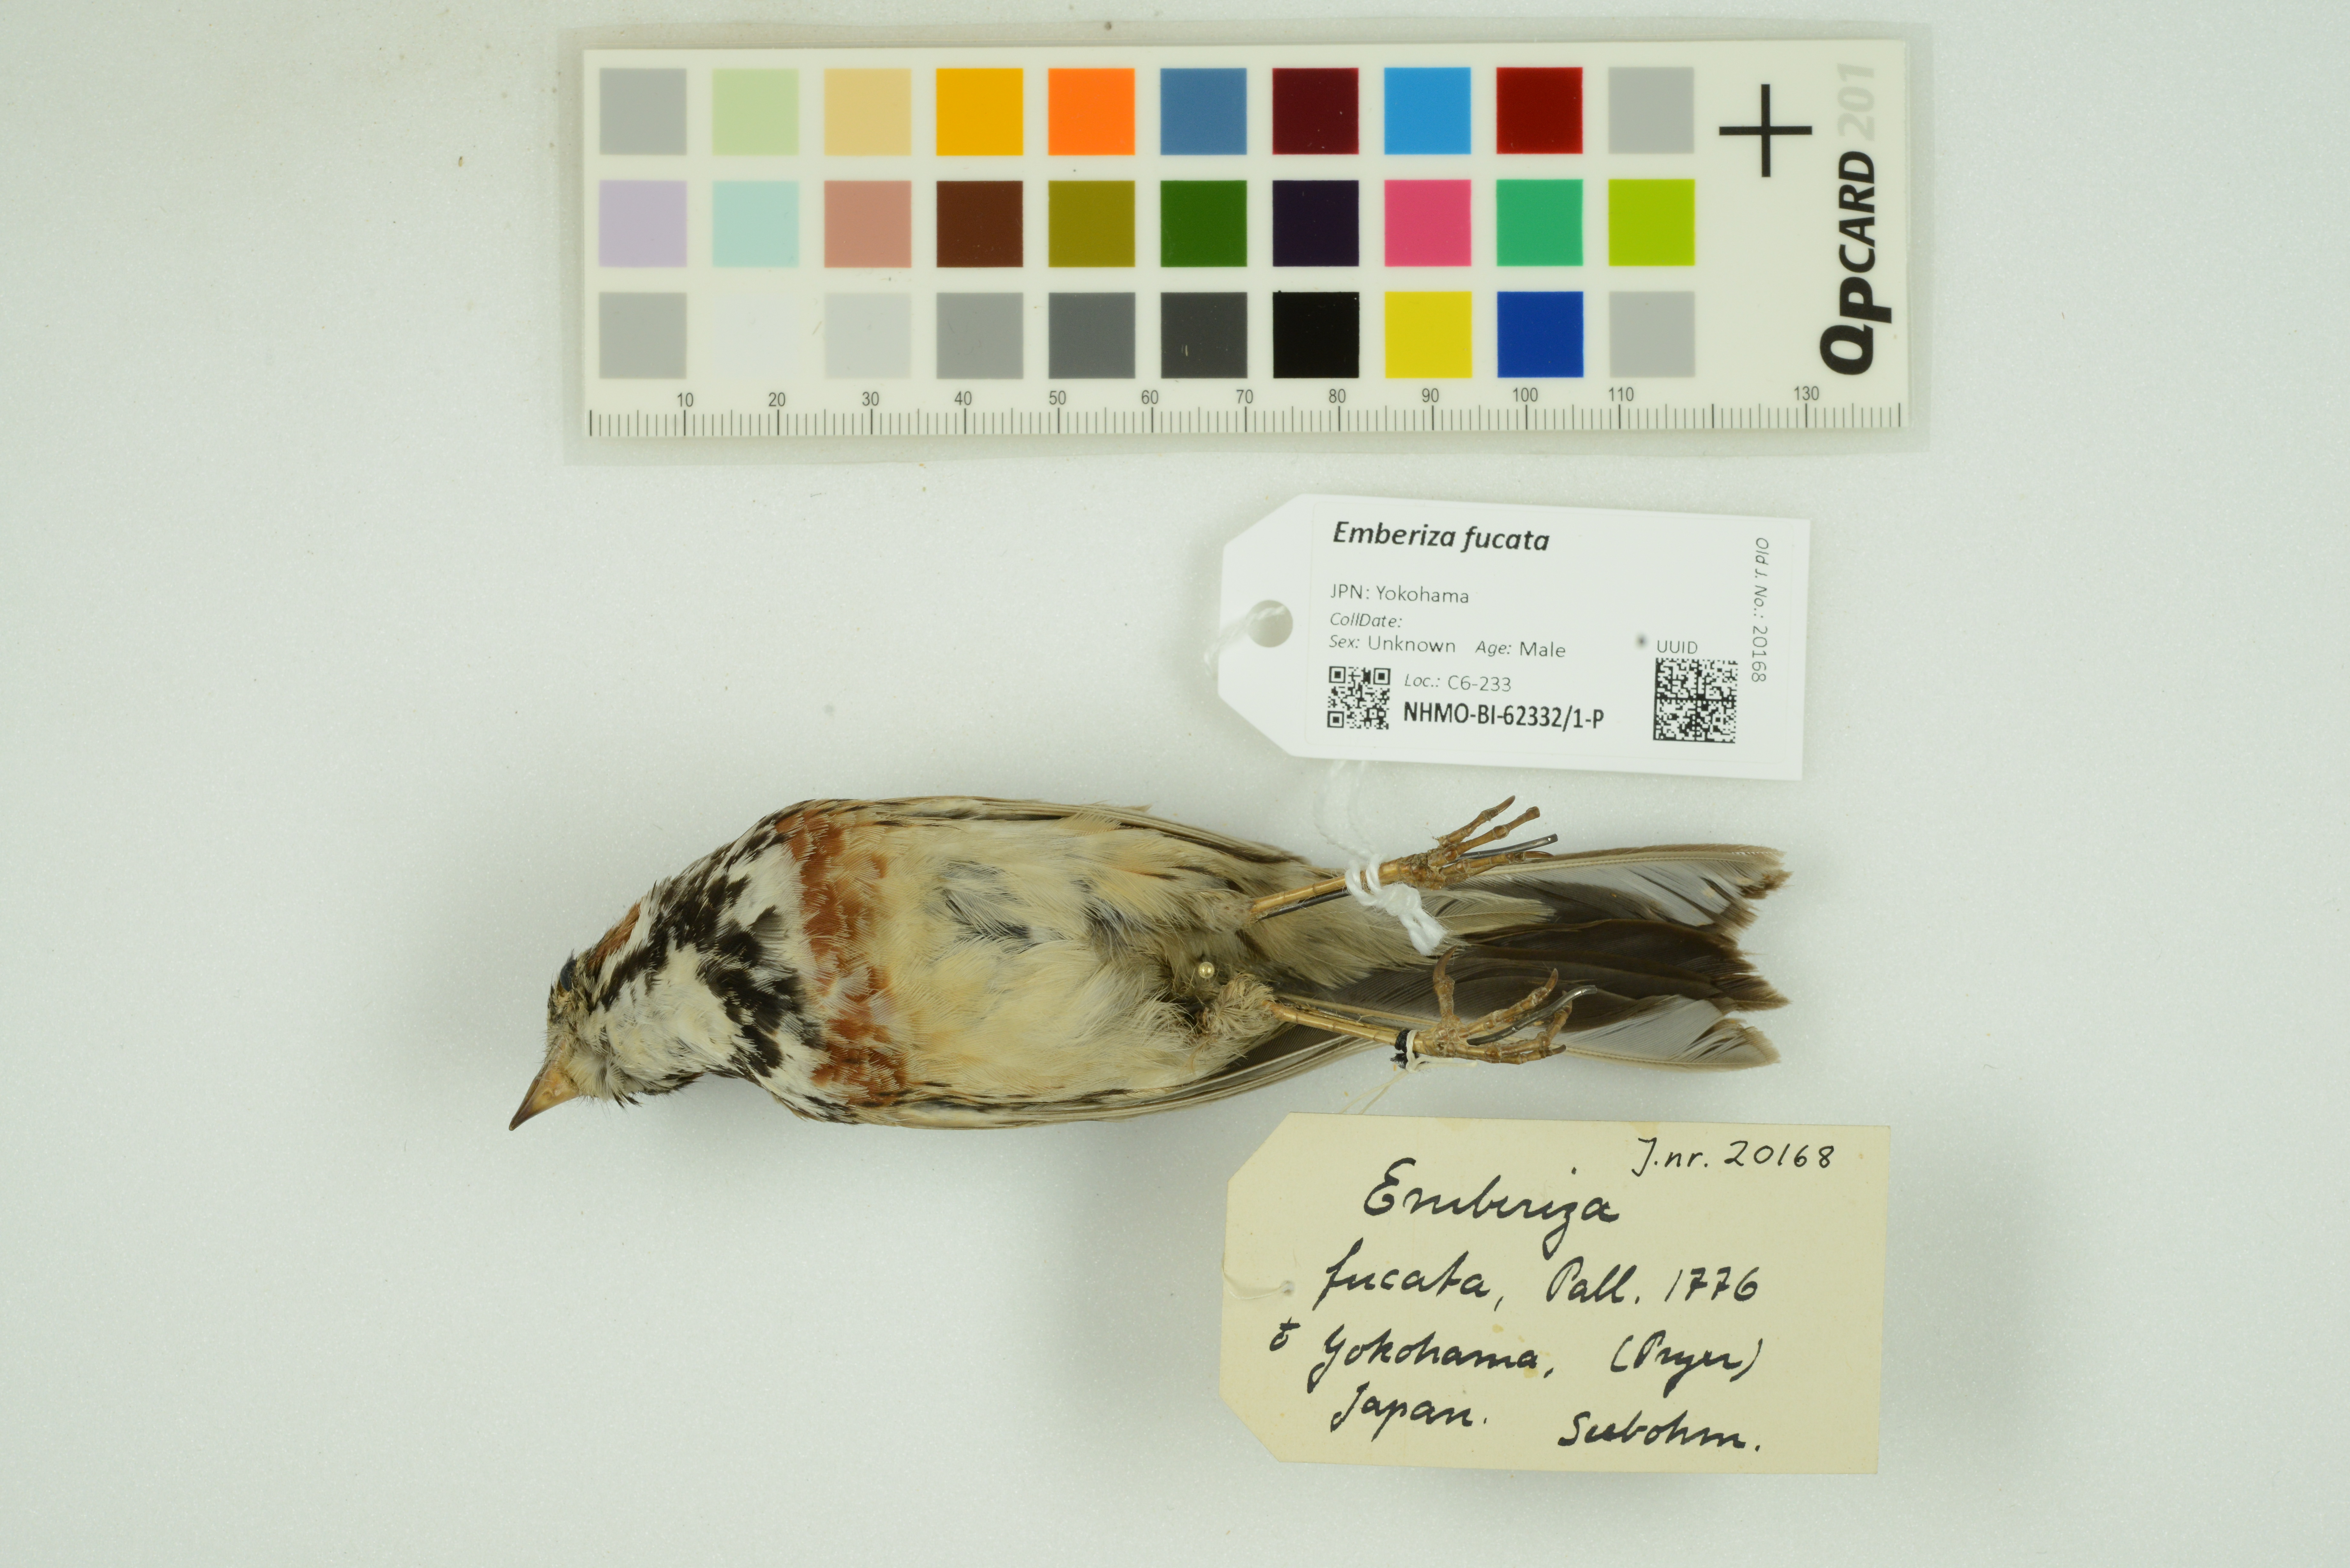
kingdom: Animalia
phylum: Chordata
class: Aves
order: Passeriformes
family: Emberizidae
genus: Emberiza
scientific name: Emberiza fucata
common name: Chestnut-eared bunting
